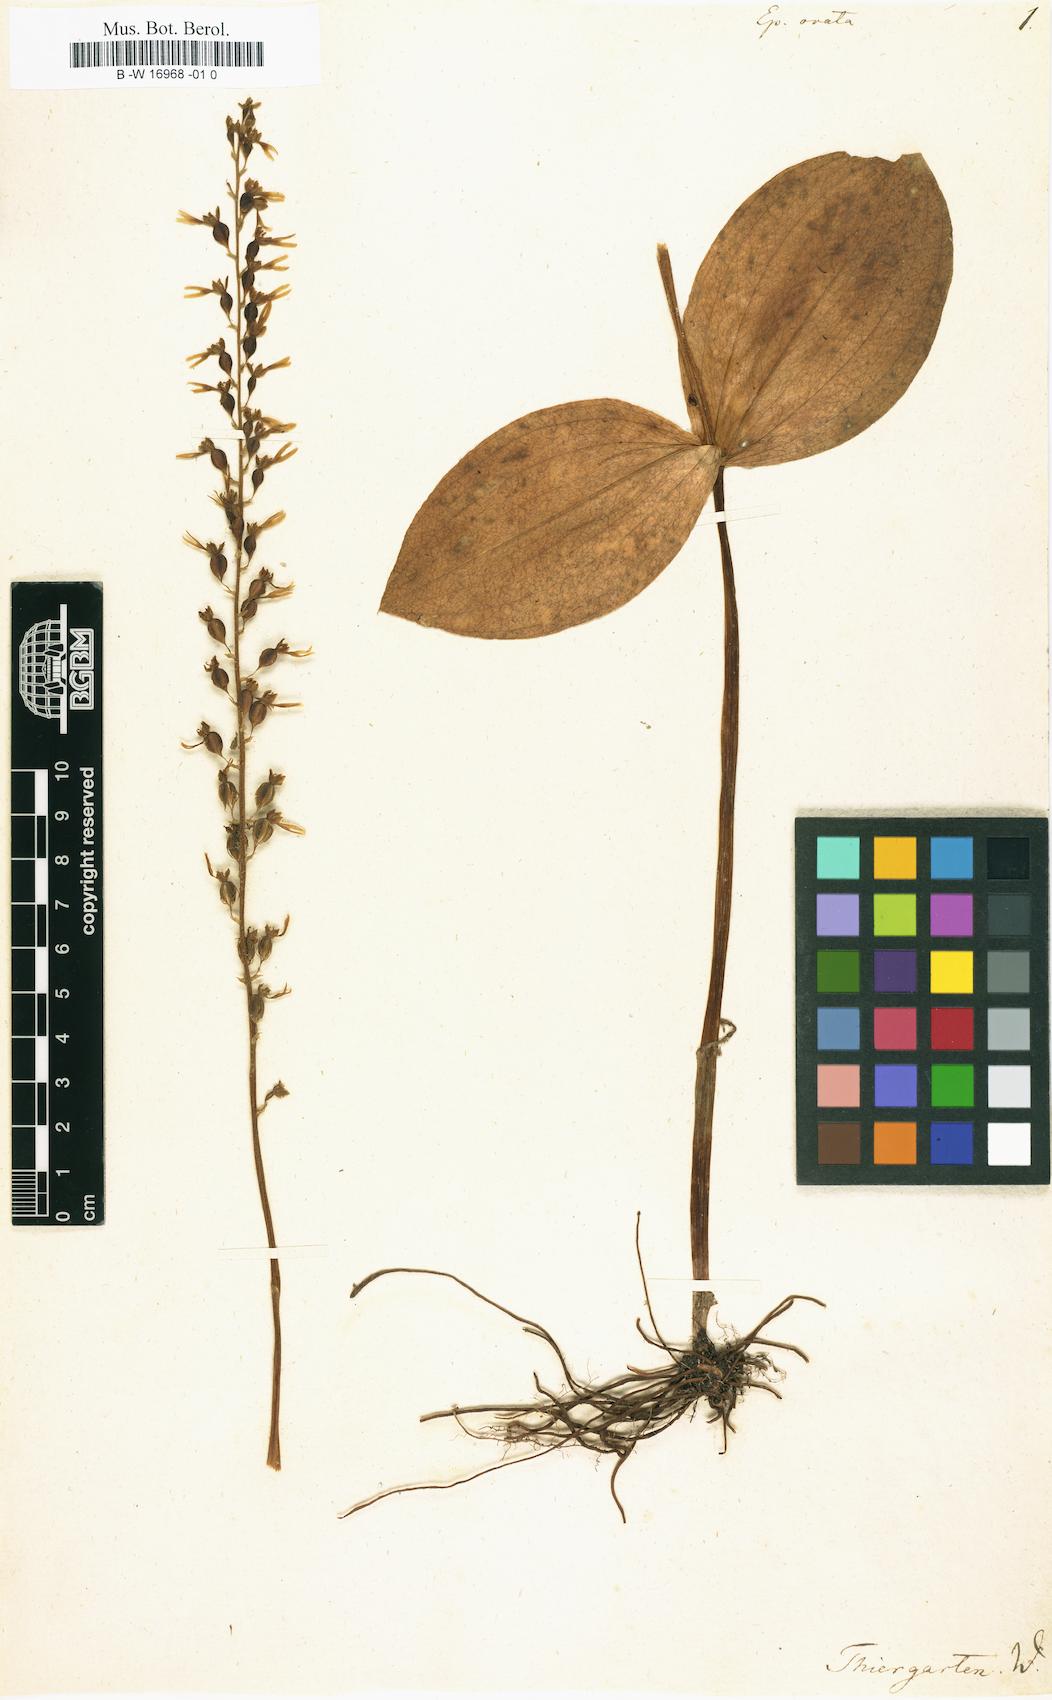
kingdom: Plantae
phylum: Tracheophyta
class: Liliopsida
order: Asparagales
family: Orchidaceae
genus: Neottia
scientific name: Neottia ovata
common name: Common twayblade
